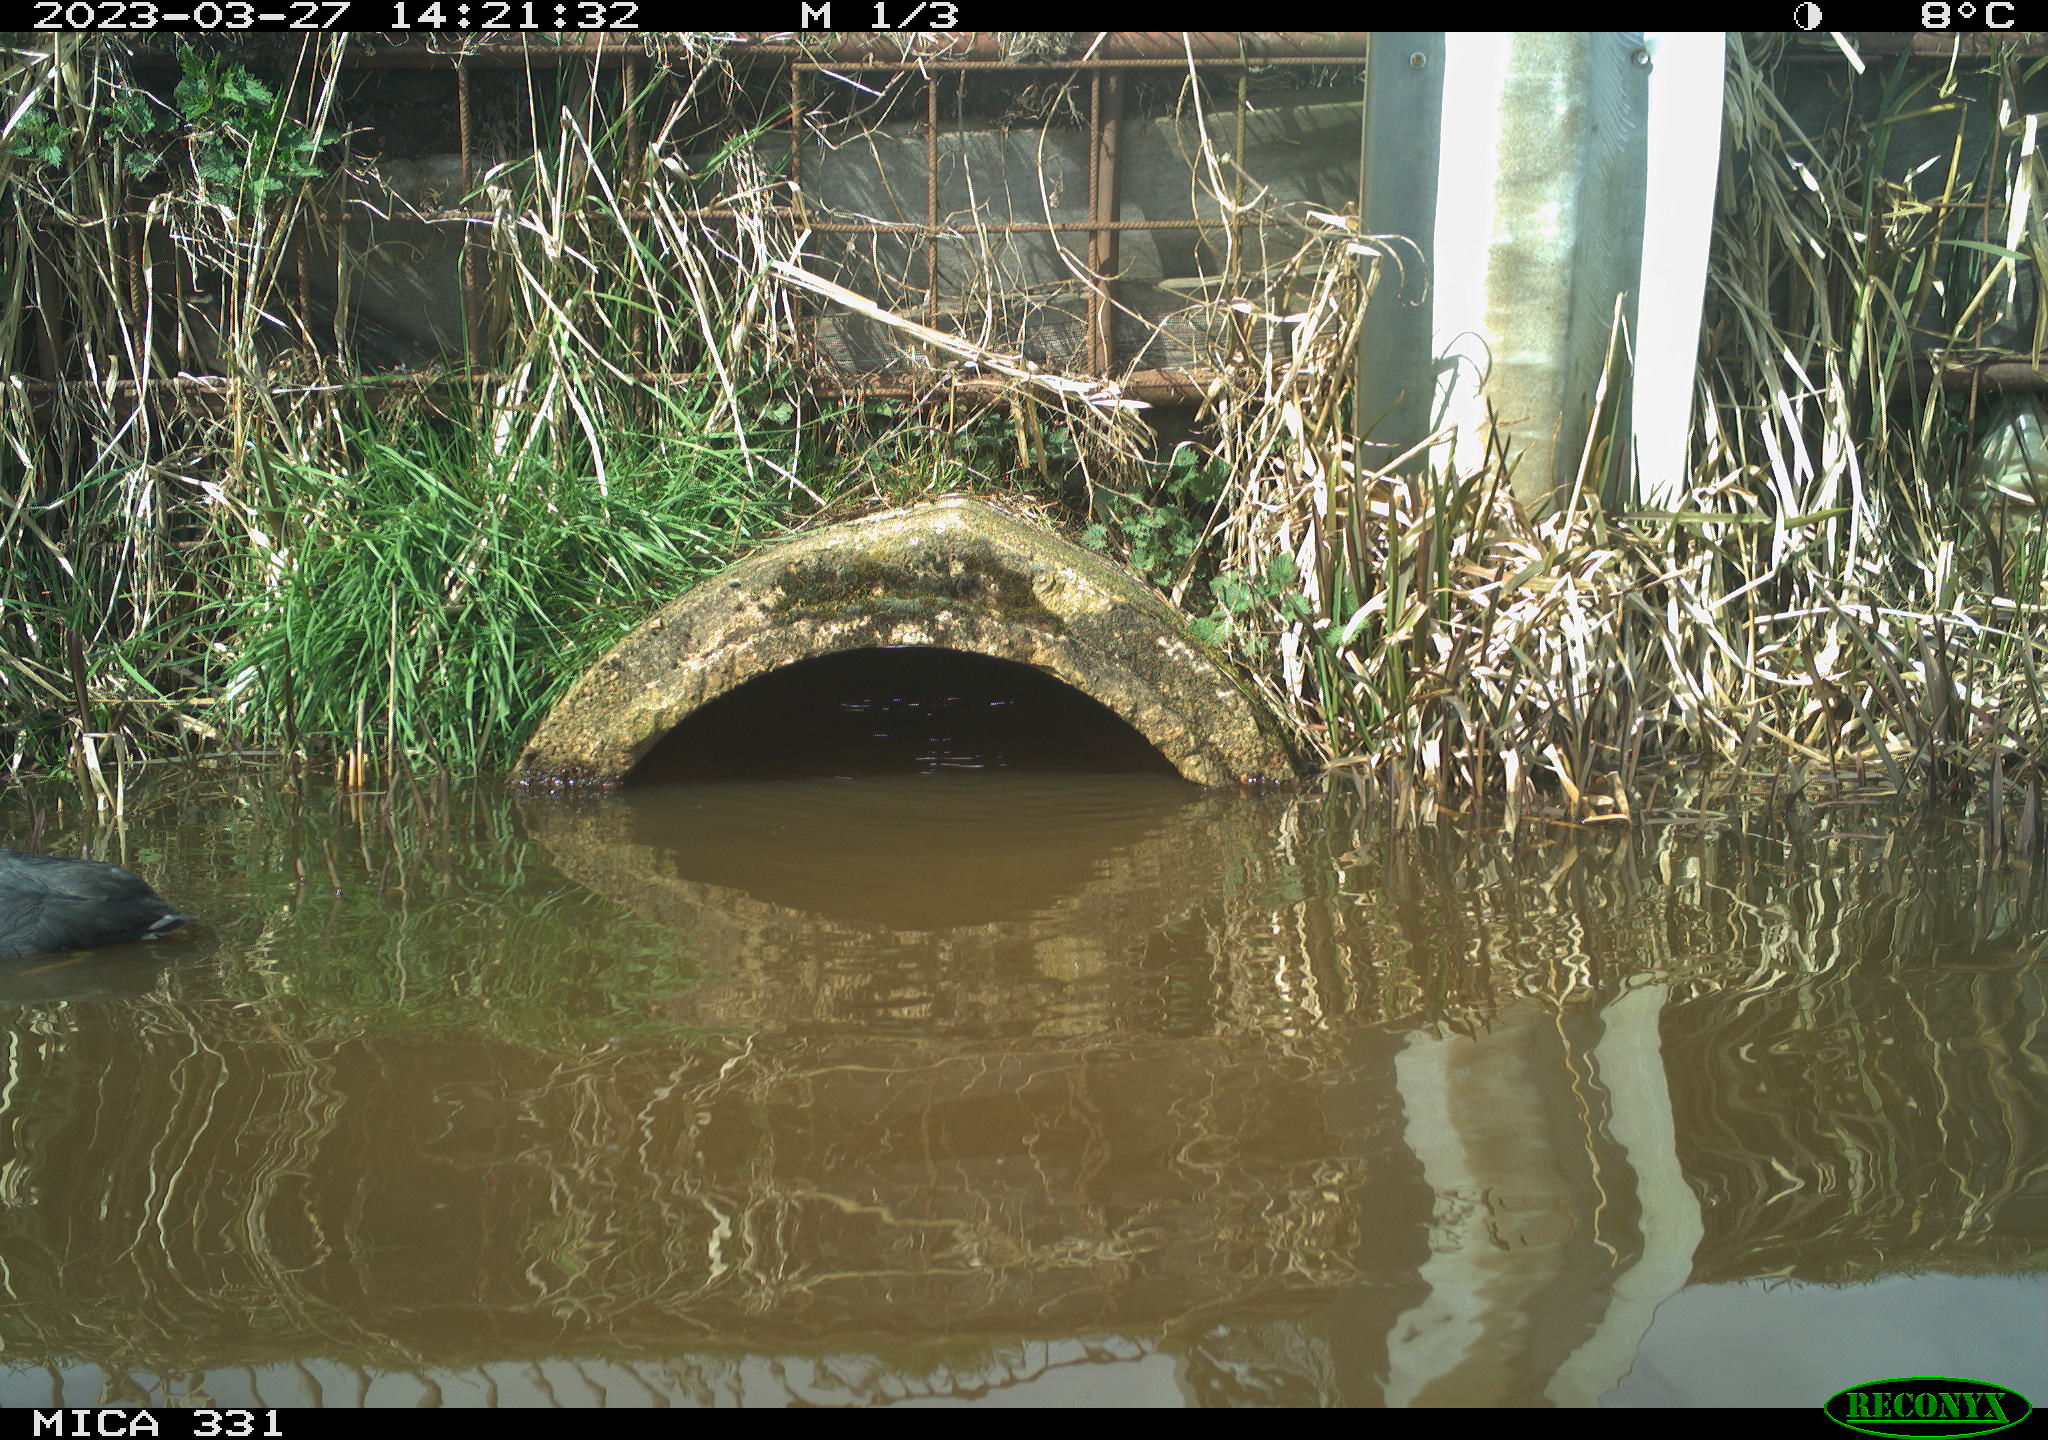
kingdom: Animalia
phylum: Chordata
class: Aves
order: Gruiformes
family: Rallidae
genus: Gallinula
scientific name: Gallinula chloropus
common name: Common moorhen
